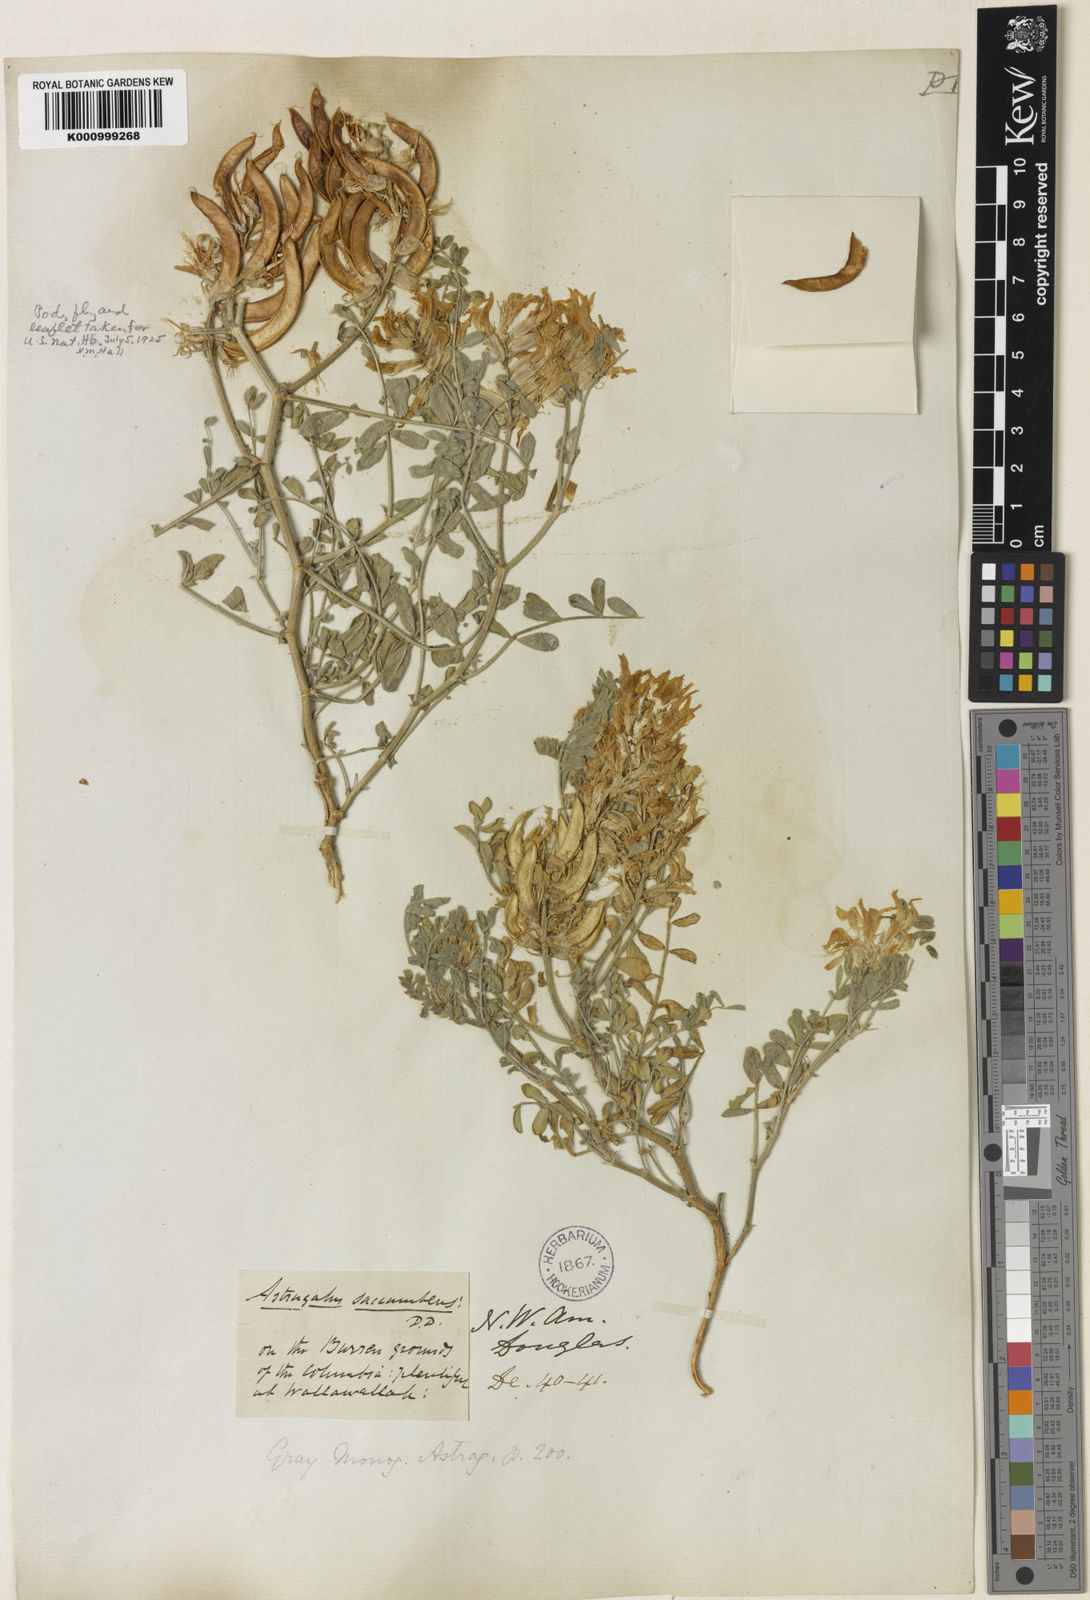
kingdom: Plantae
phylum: Tracheophyta
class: Magnoliopsida
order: Fabales
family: Fabaceae
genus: Astragalus
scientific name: Astragalus
